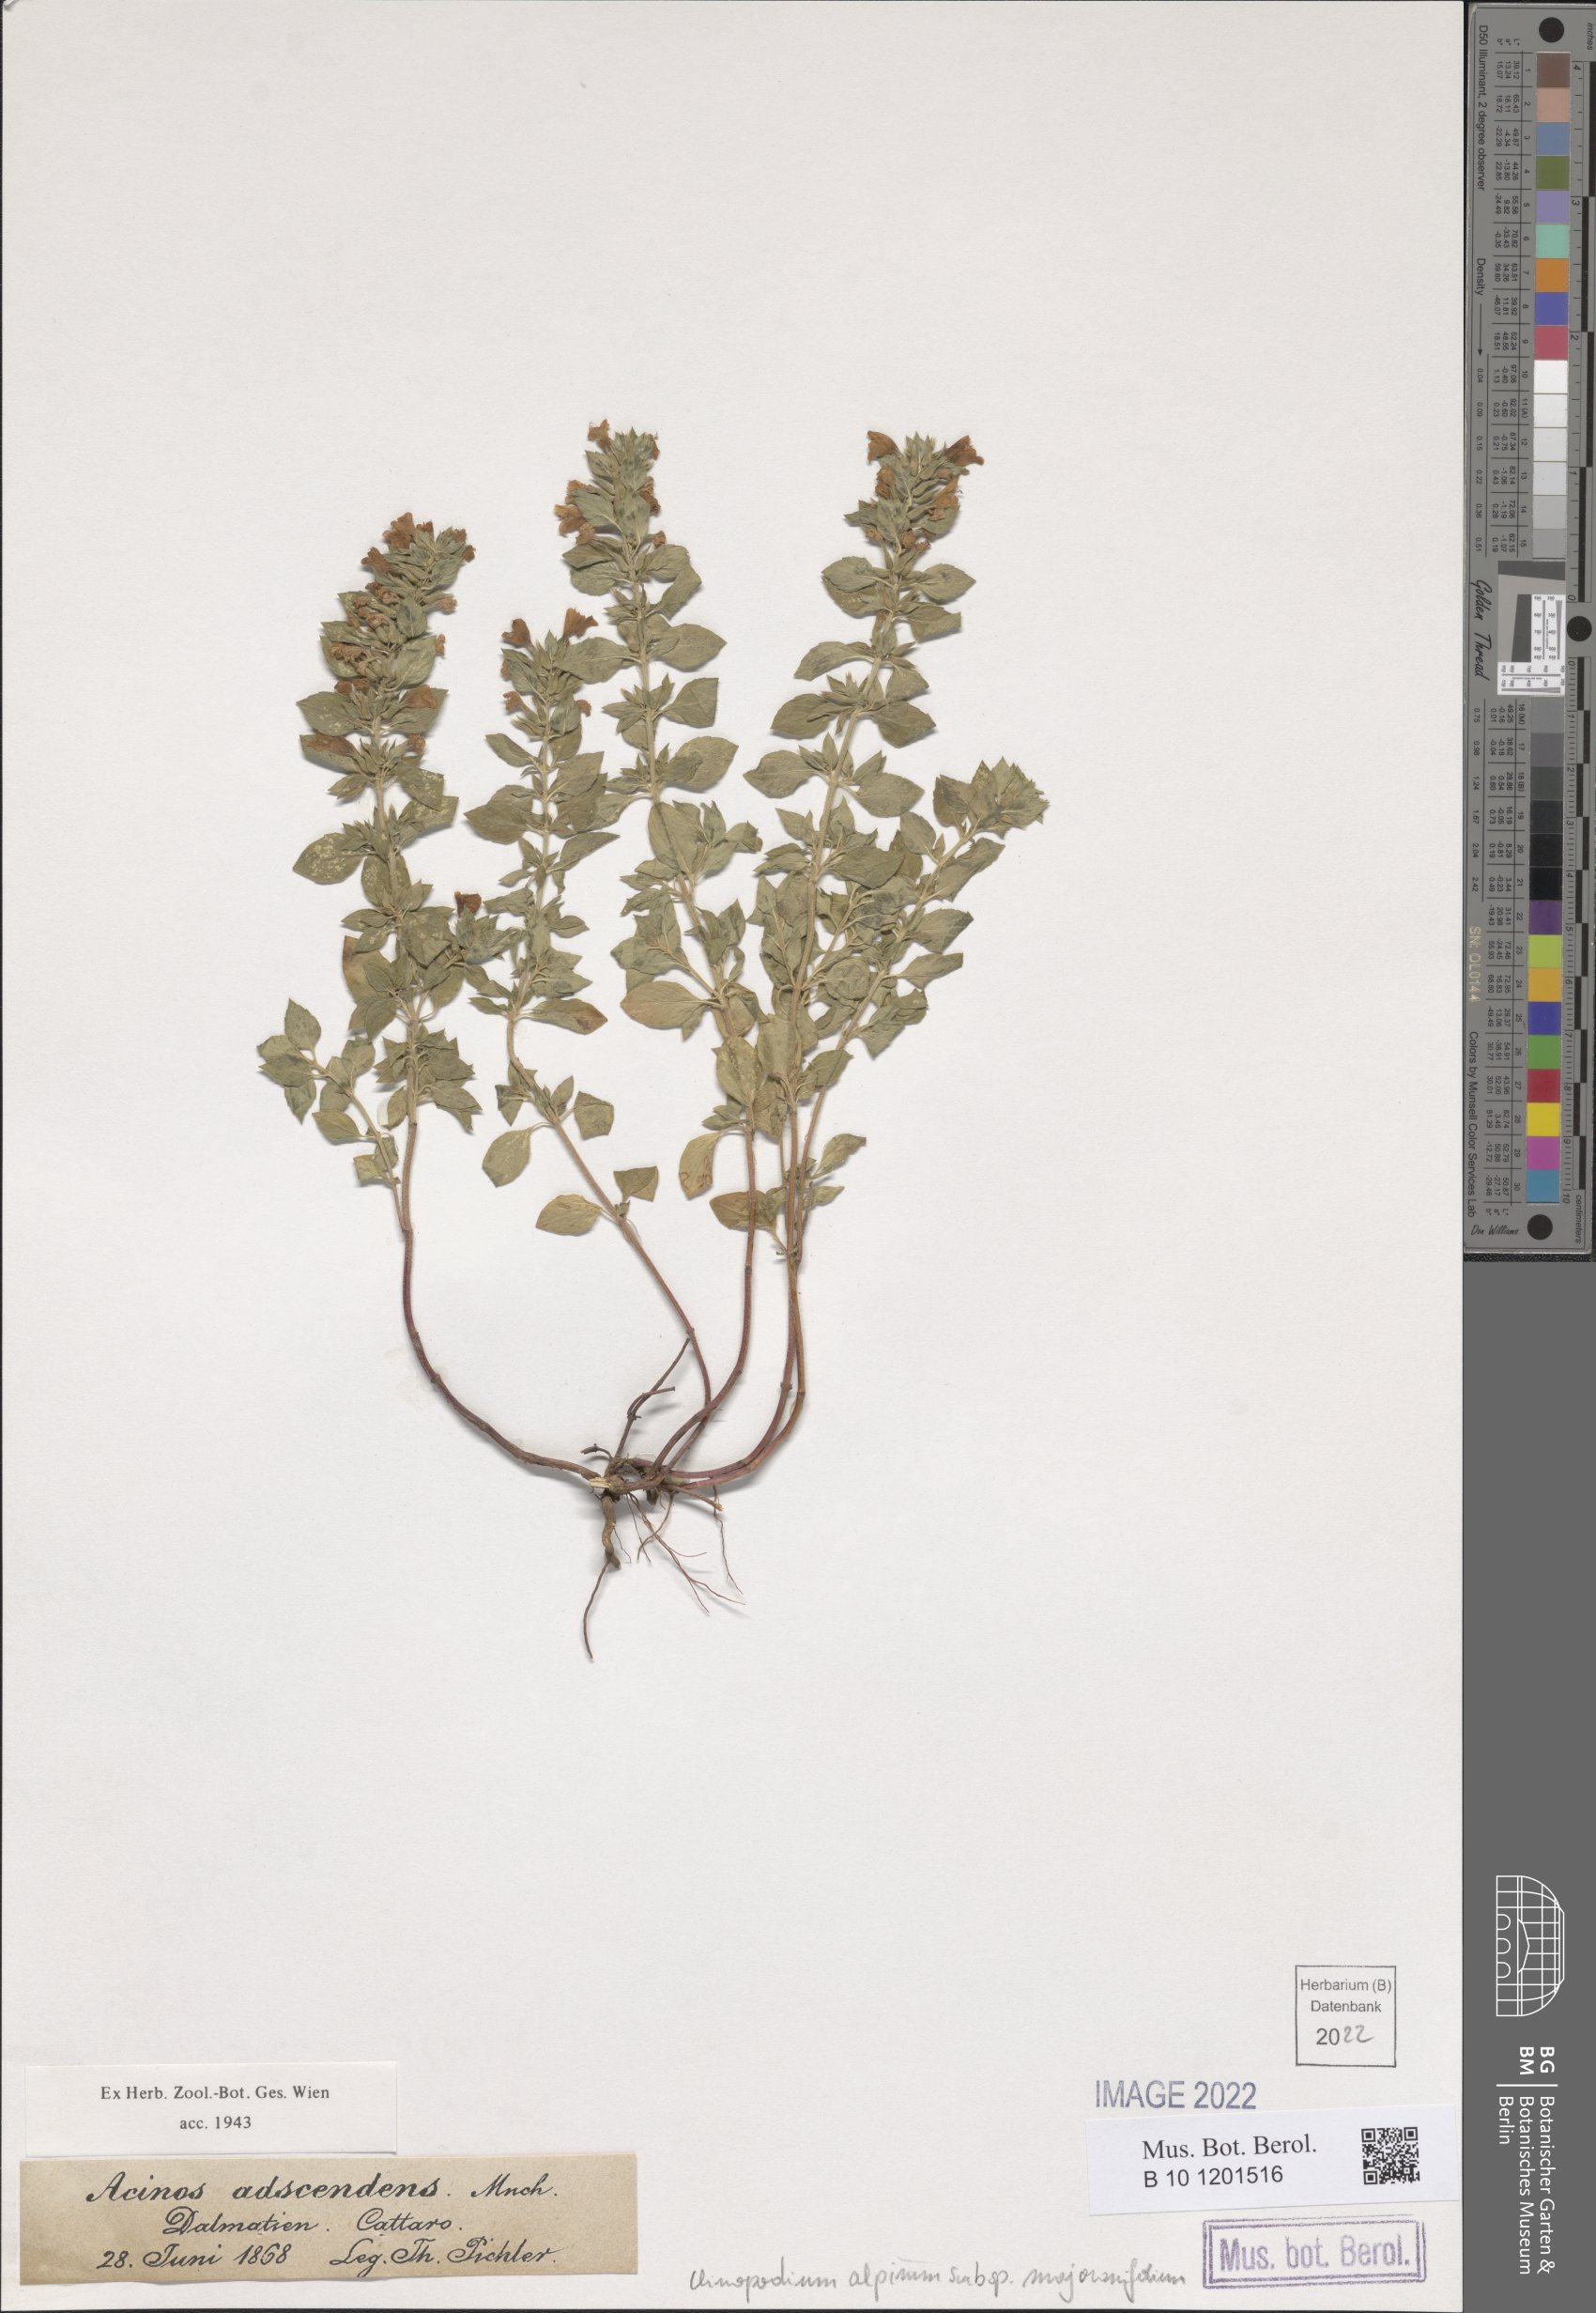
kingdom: Plantae
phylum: Tracheophyta
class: Magnoliopsida
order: Lamiales
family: Lamiaceae
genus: Clinopodium
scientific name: Clinopodium alpinum
